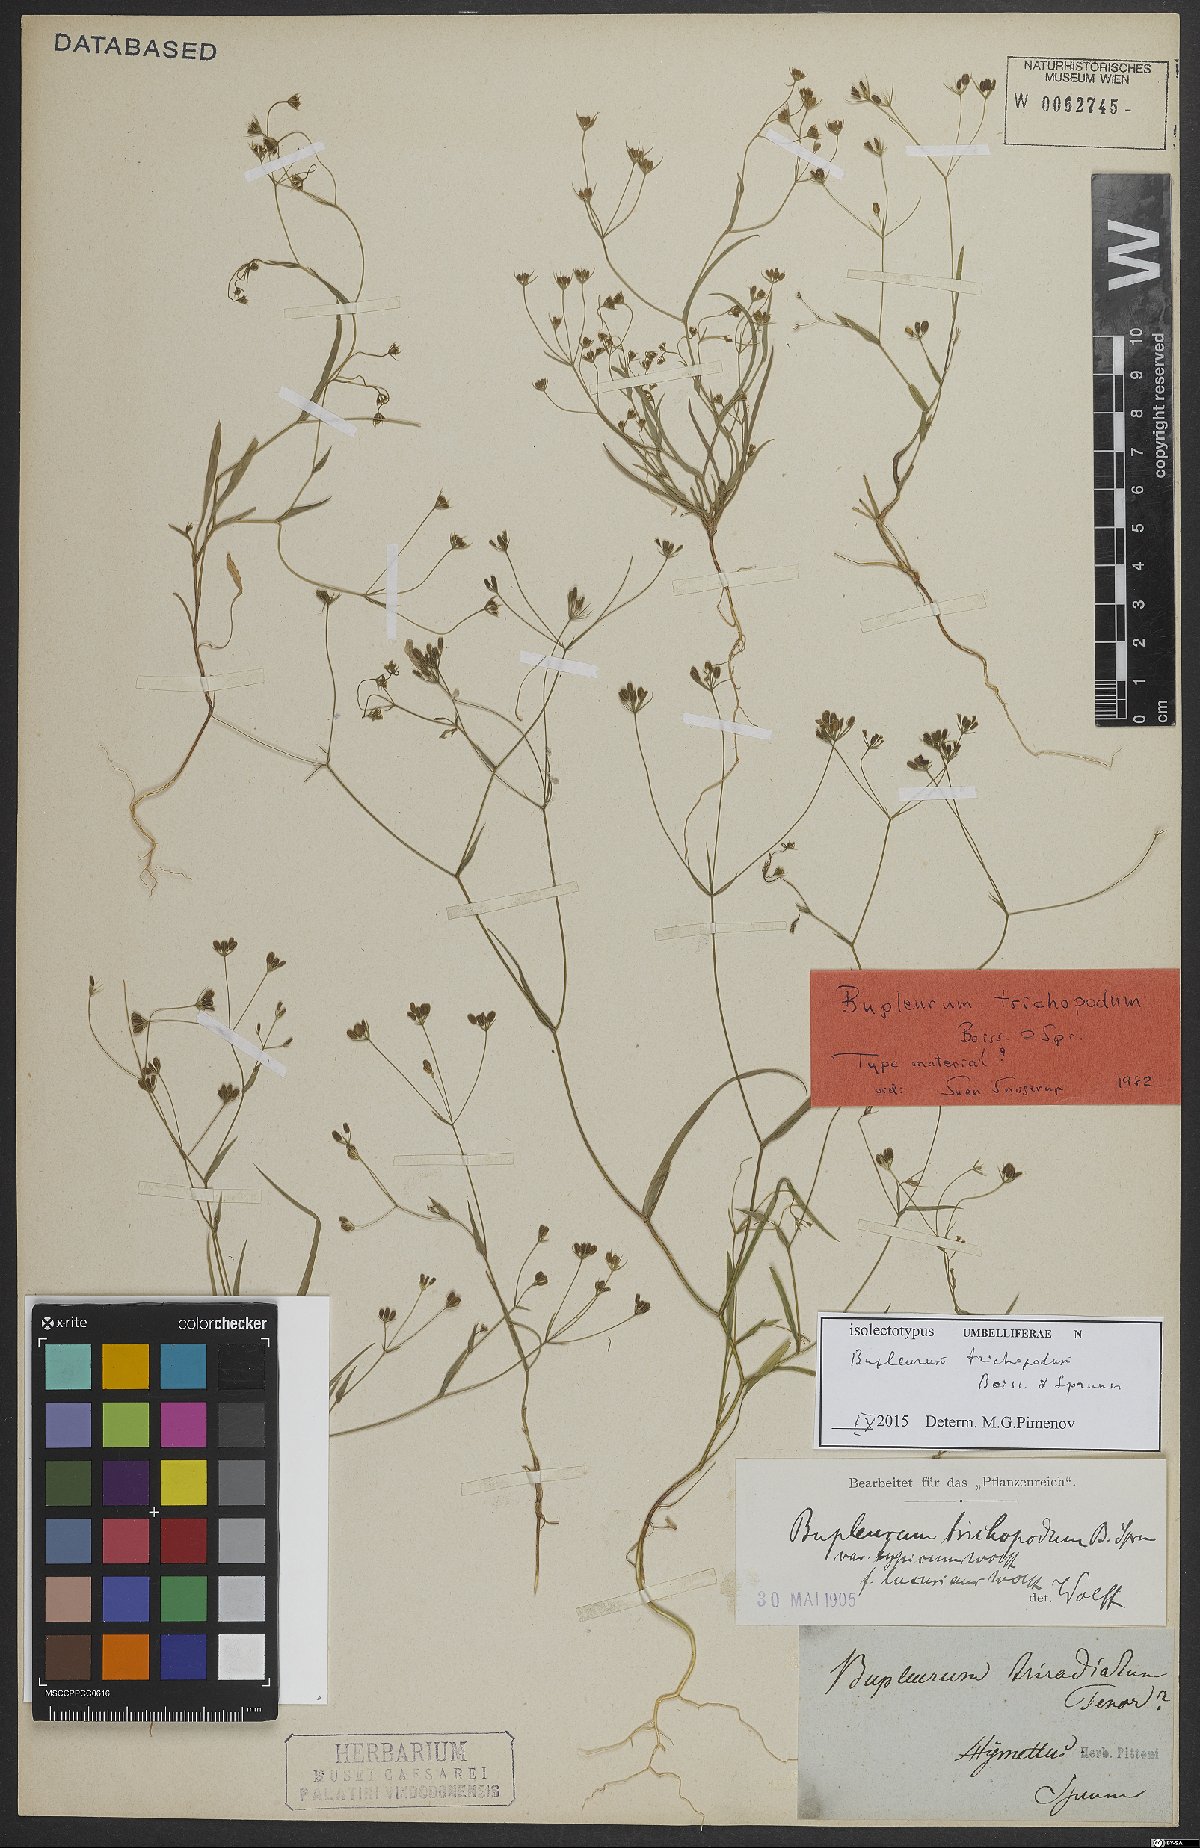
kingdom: Plantae
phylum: Tracheophyta
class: Magnoliopsida
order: Apiales
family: Apiaceae
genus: Bupleurum
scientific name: Bupleurum trichopodum
